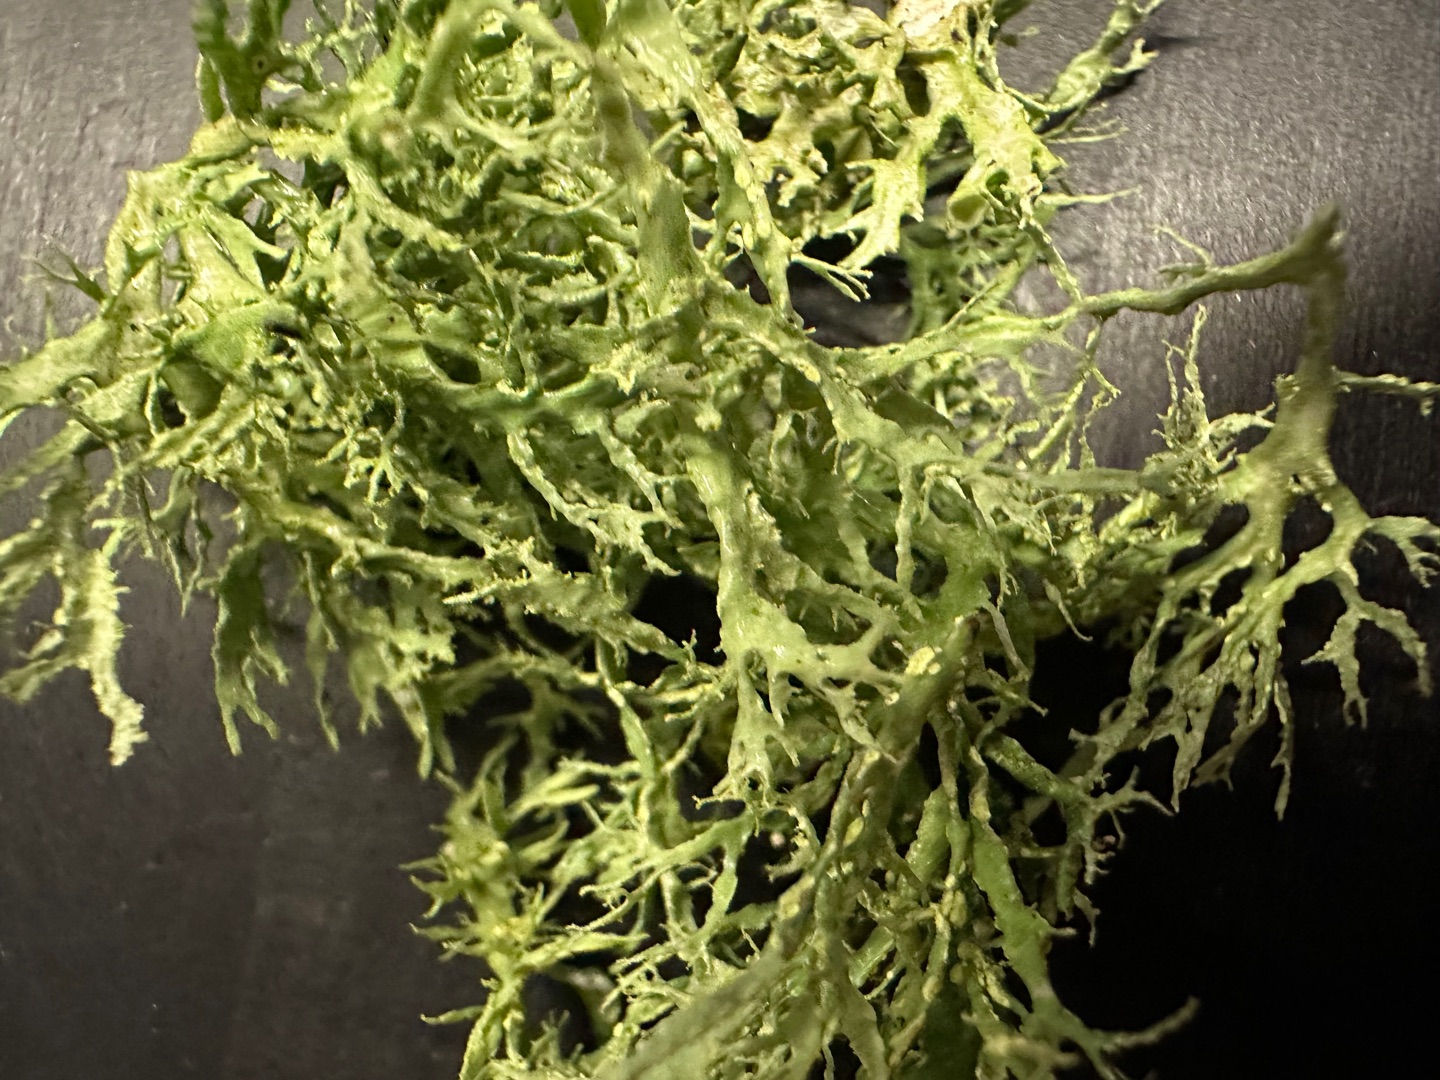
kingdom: Fungi
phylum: Ascomycota
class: Lecanoromycetes
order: Lecanorales
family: Ramalinaceae
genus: Ramalina
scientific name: Ramalina farinacea
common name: Melet grenlav
